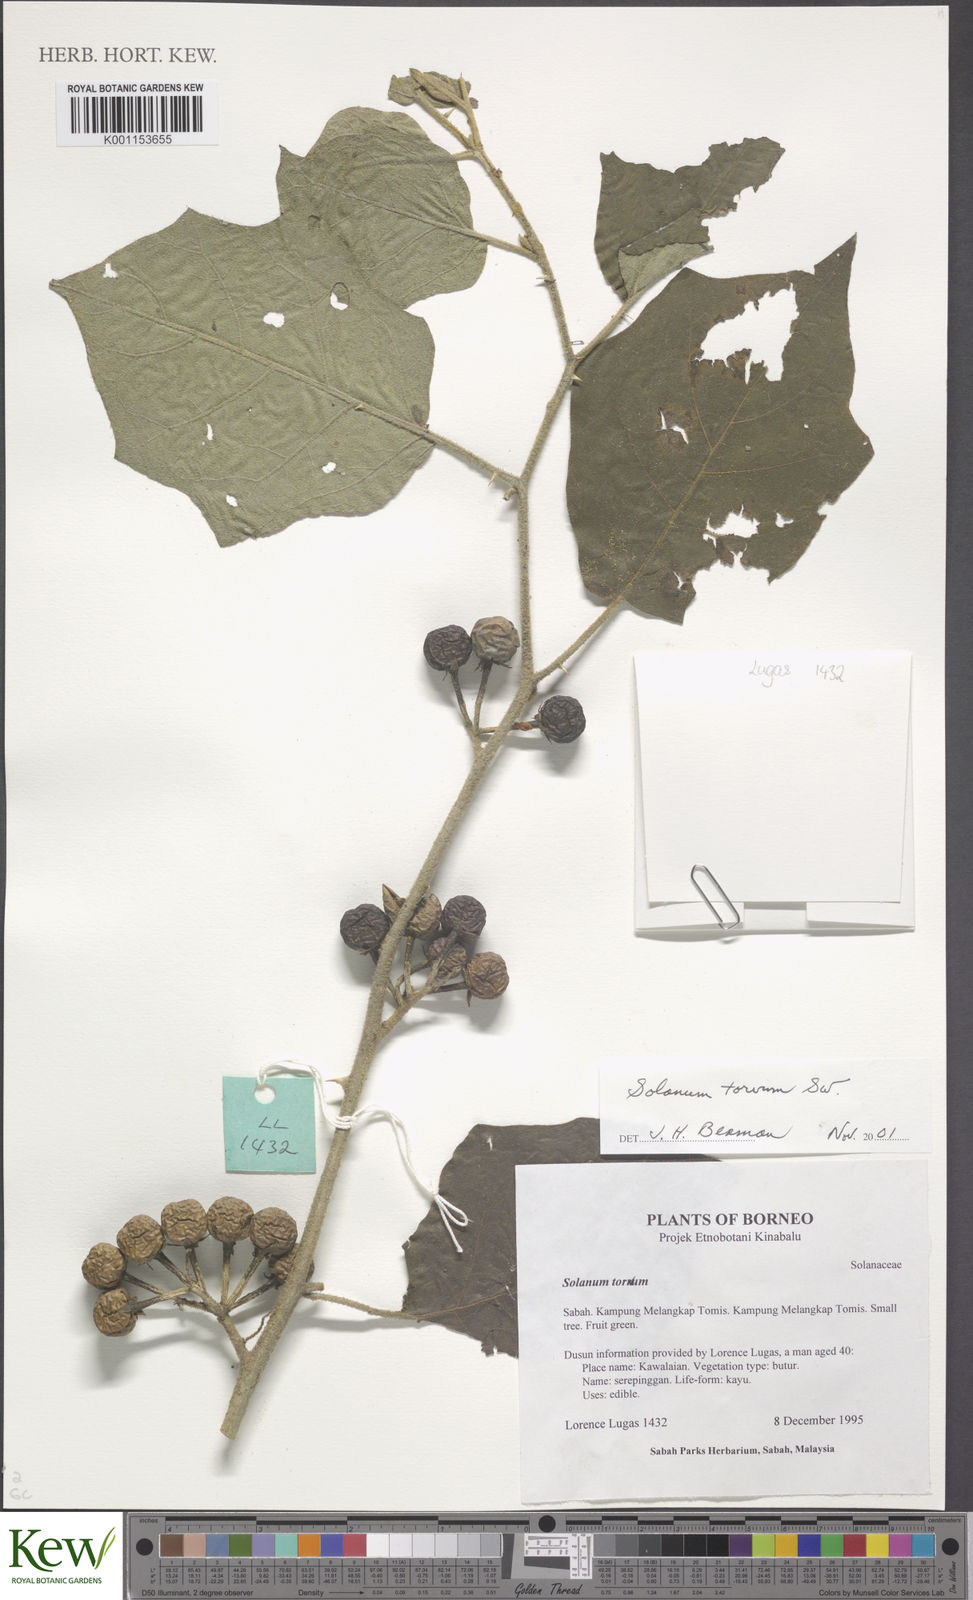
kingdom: Plantae
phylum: Tracheophyta
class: Magnoliopsida
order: Solanales
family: Solanaceae
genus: Solanum
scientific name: Solanum torvum
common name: Turkey berry
